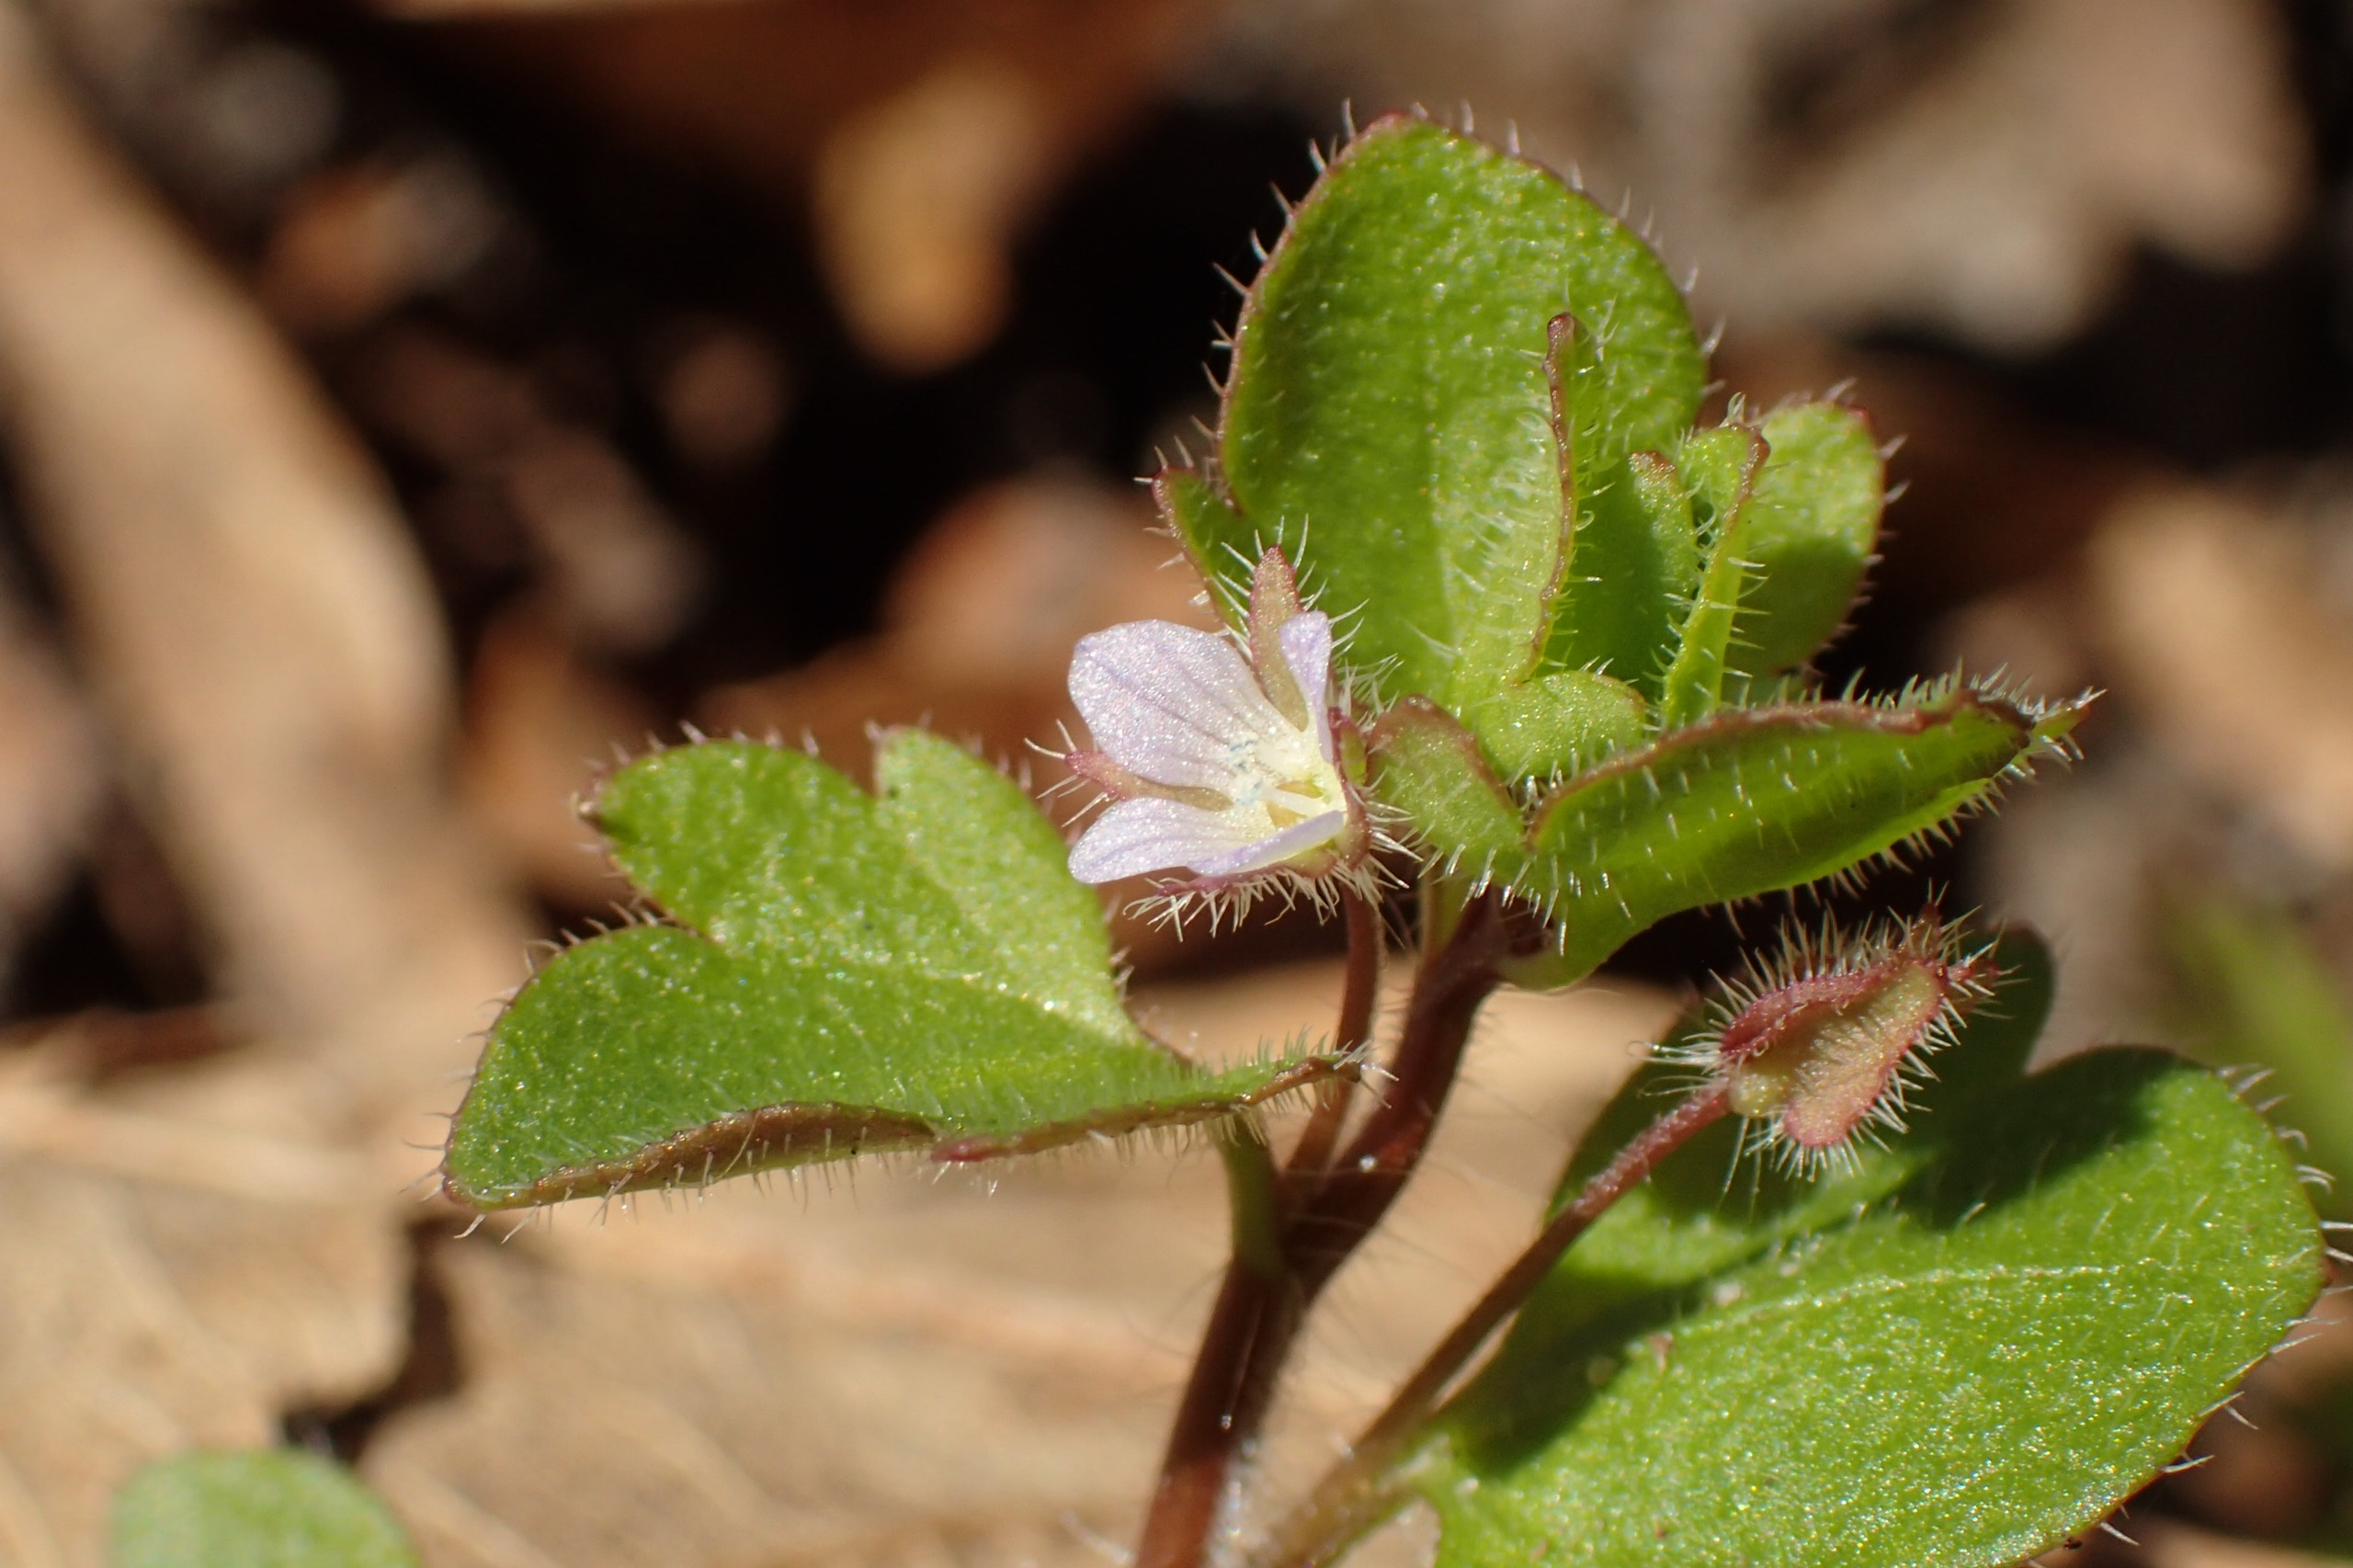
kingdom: Plantae
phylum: Tracheophyta
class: Magnoliopsida
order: Lamiales
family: Plantaginaceae
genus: Veronica
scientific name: Veronica sublobata
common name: Krat-ærenpris
